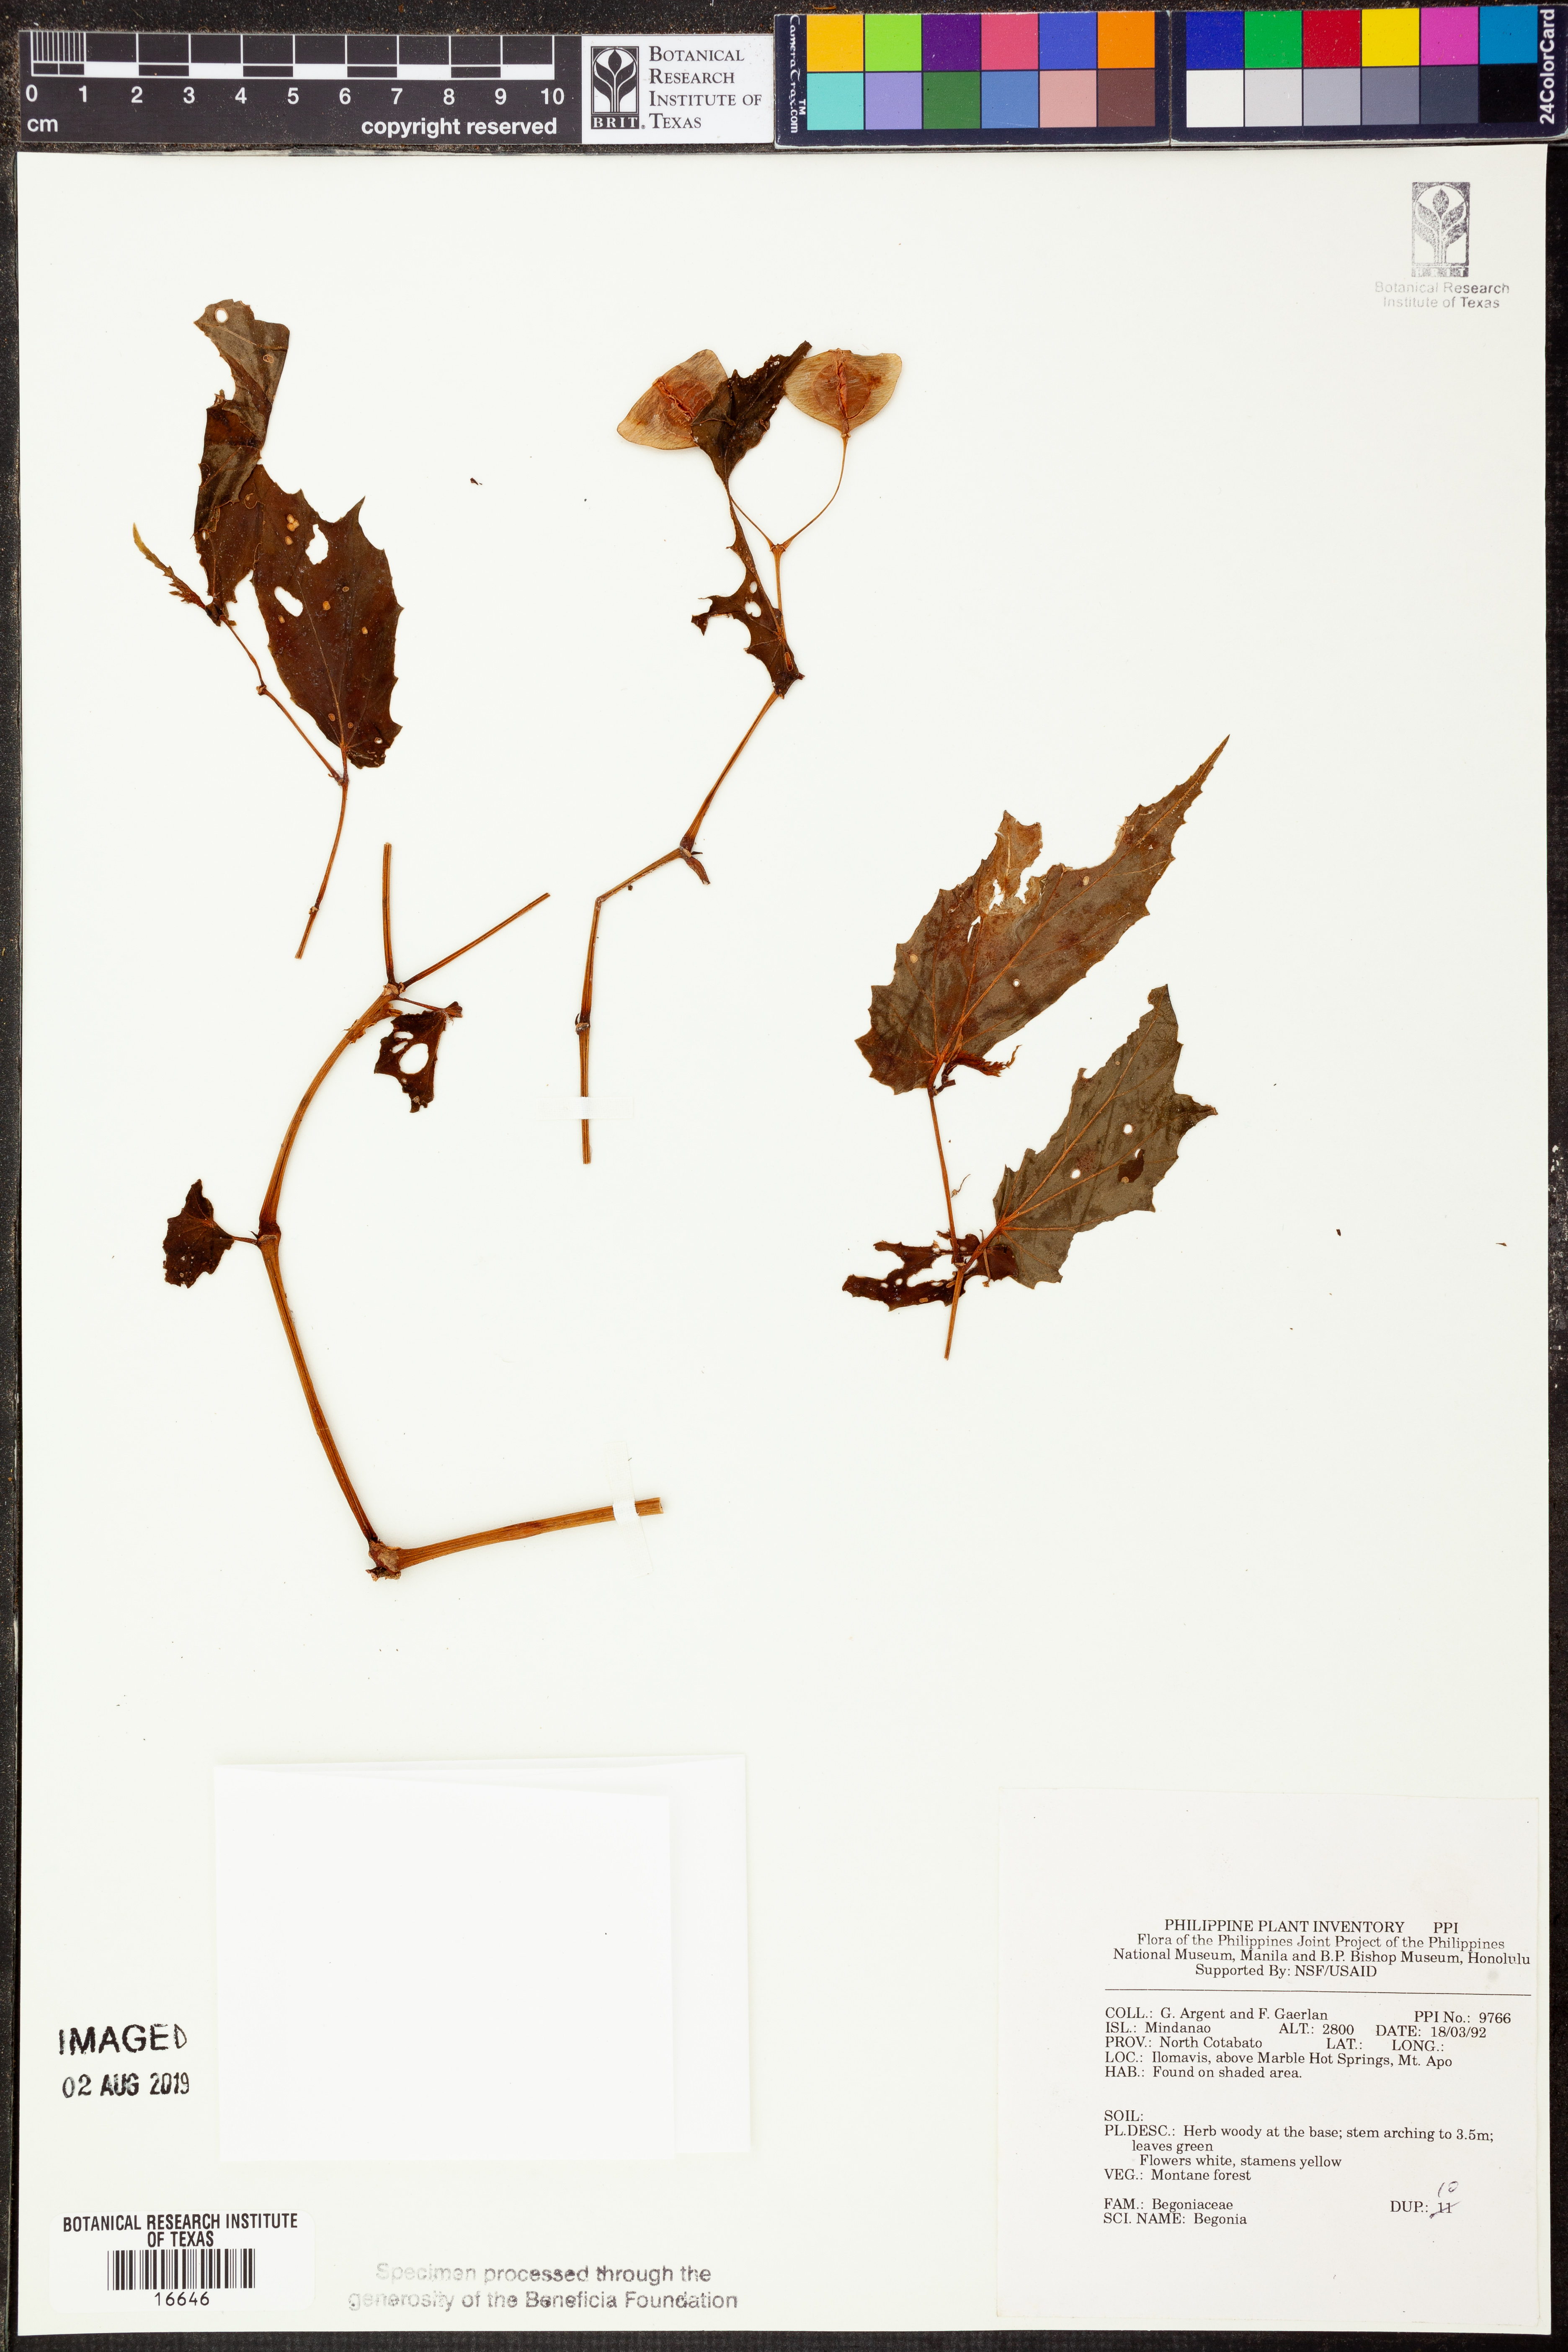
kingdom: Plantae
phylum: Tracheophyta
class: Magnoliopsida
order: Cucurbitales
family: Begoniaceae
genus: Begonia
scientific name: Begonia
